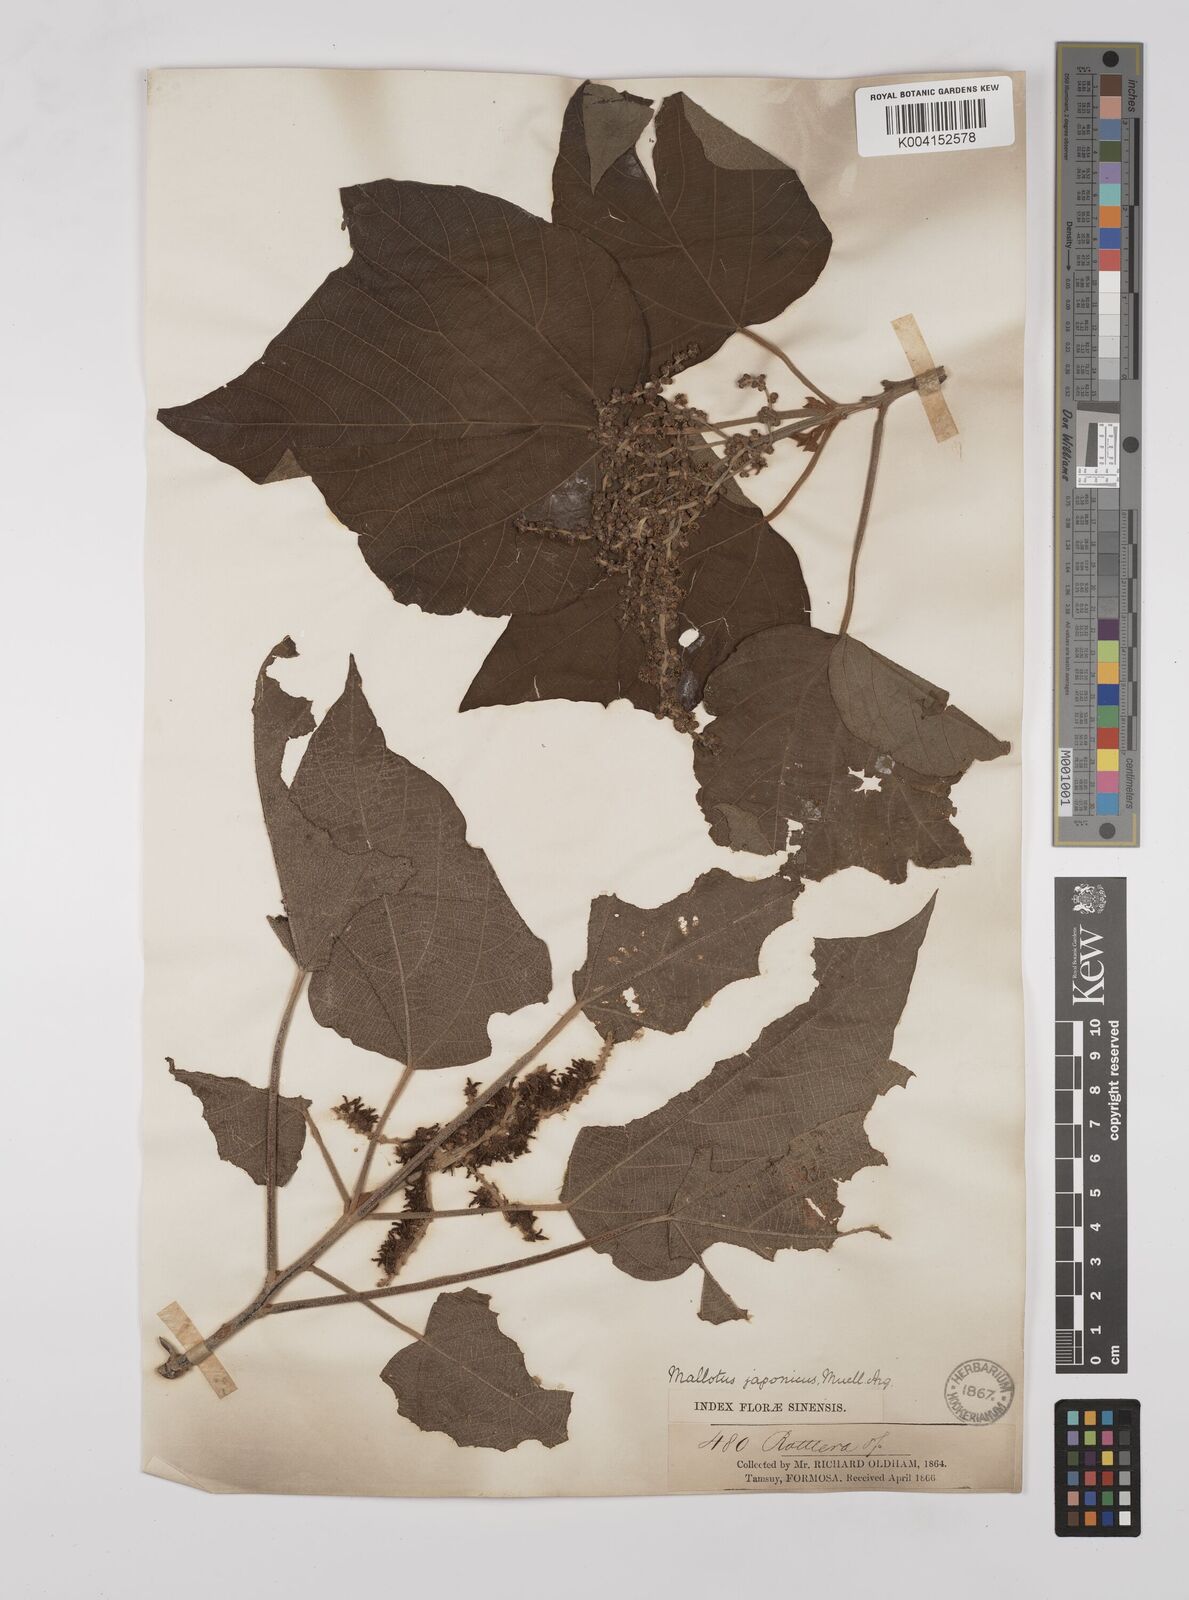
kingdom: Plantae
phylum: Tracheophyta
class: Magnoliopsida
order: Malpighiales
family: Euphorbiaceae
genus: Mallotus
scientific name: Mallotus japonicus
